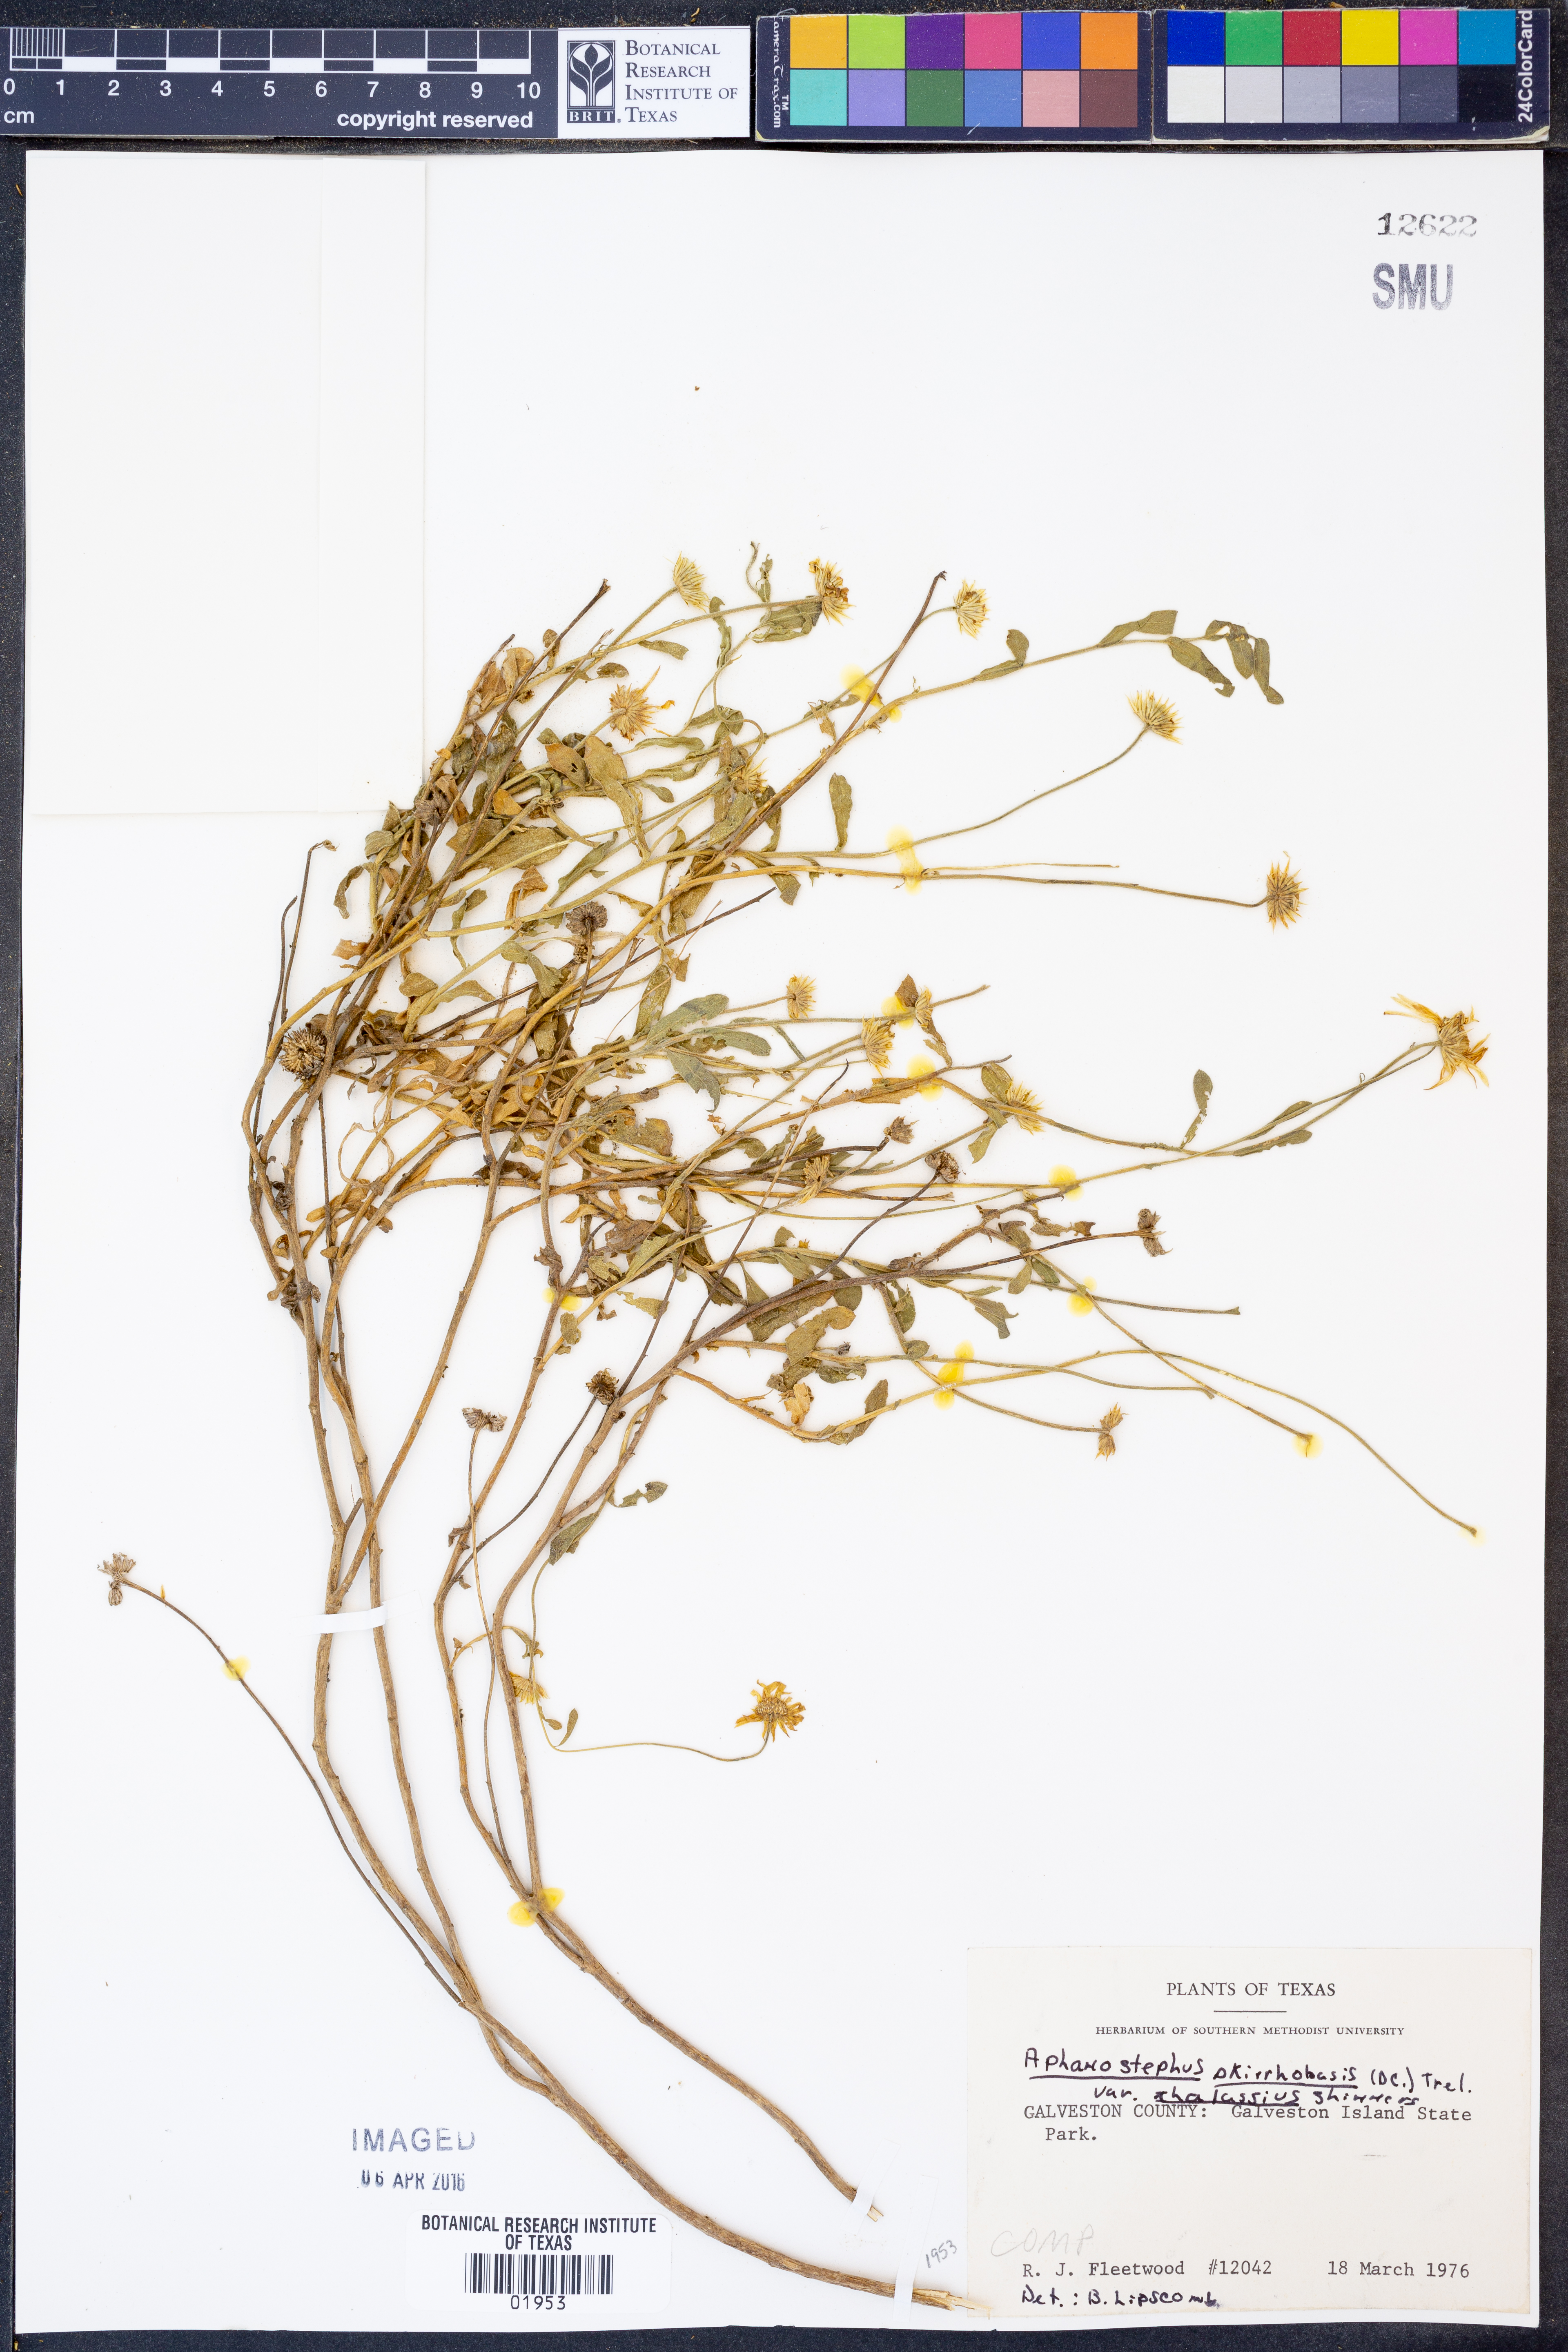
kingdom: Plantae
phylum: Tracheophyta
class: Magnoliopsida
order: Asterales
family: Asteraceae
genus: Aphanostephus
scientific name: Aphanostephus skirrhobasis
